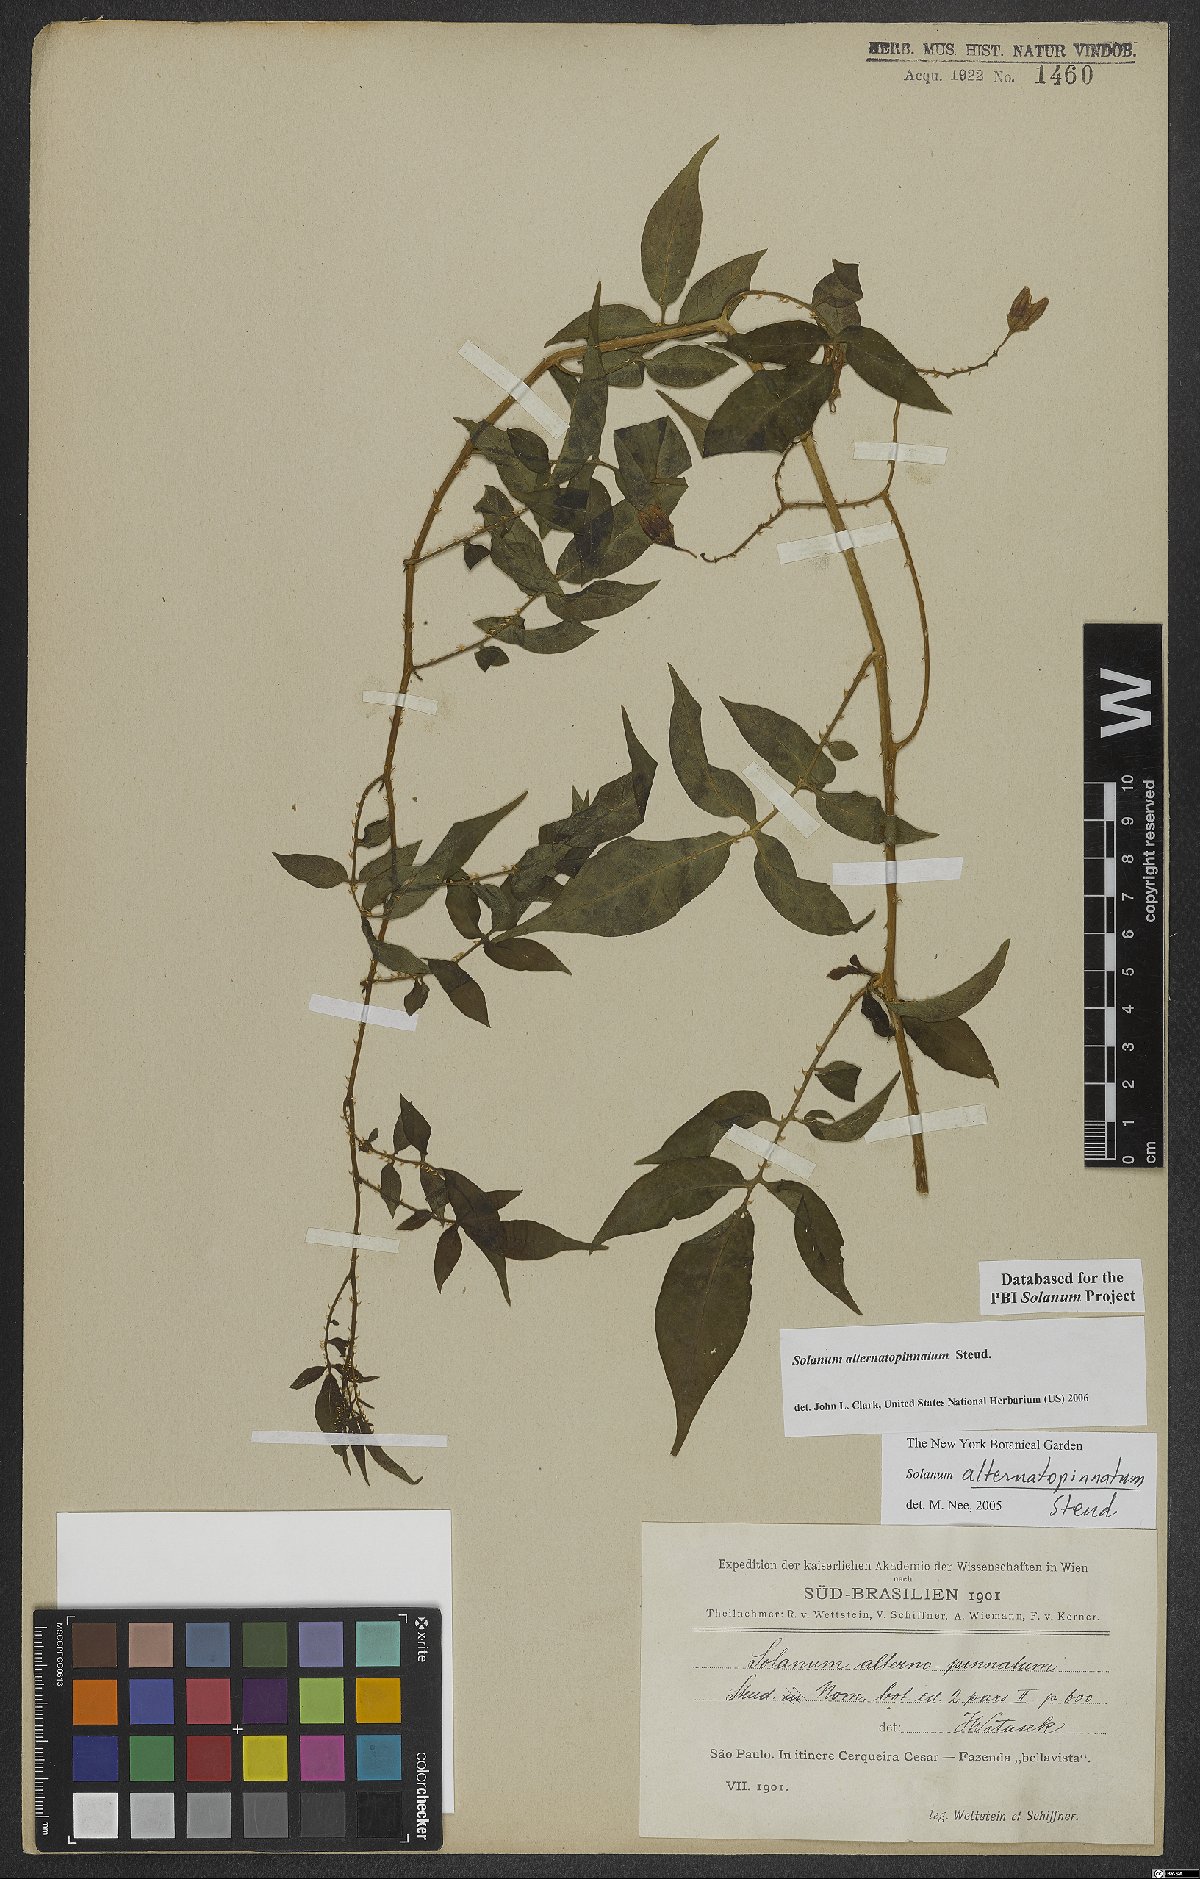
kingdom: Plantae
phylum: Tracheophyta
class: Magnoliopsida
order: Solanales
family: Solanaceae
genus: Solanum
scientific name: Solanum alternatopinnatum
